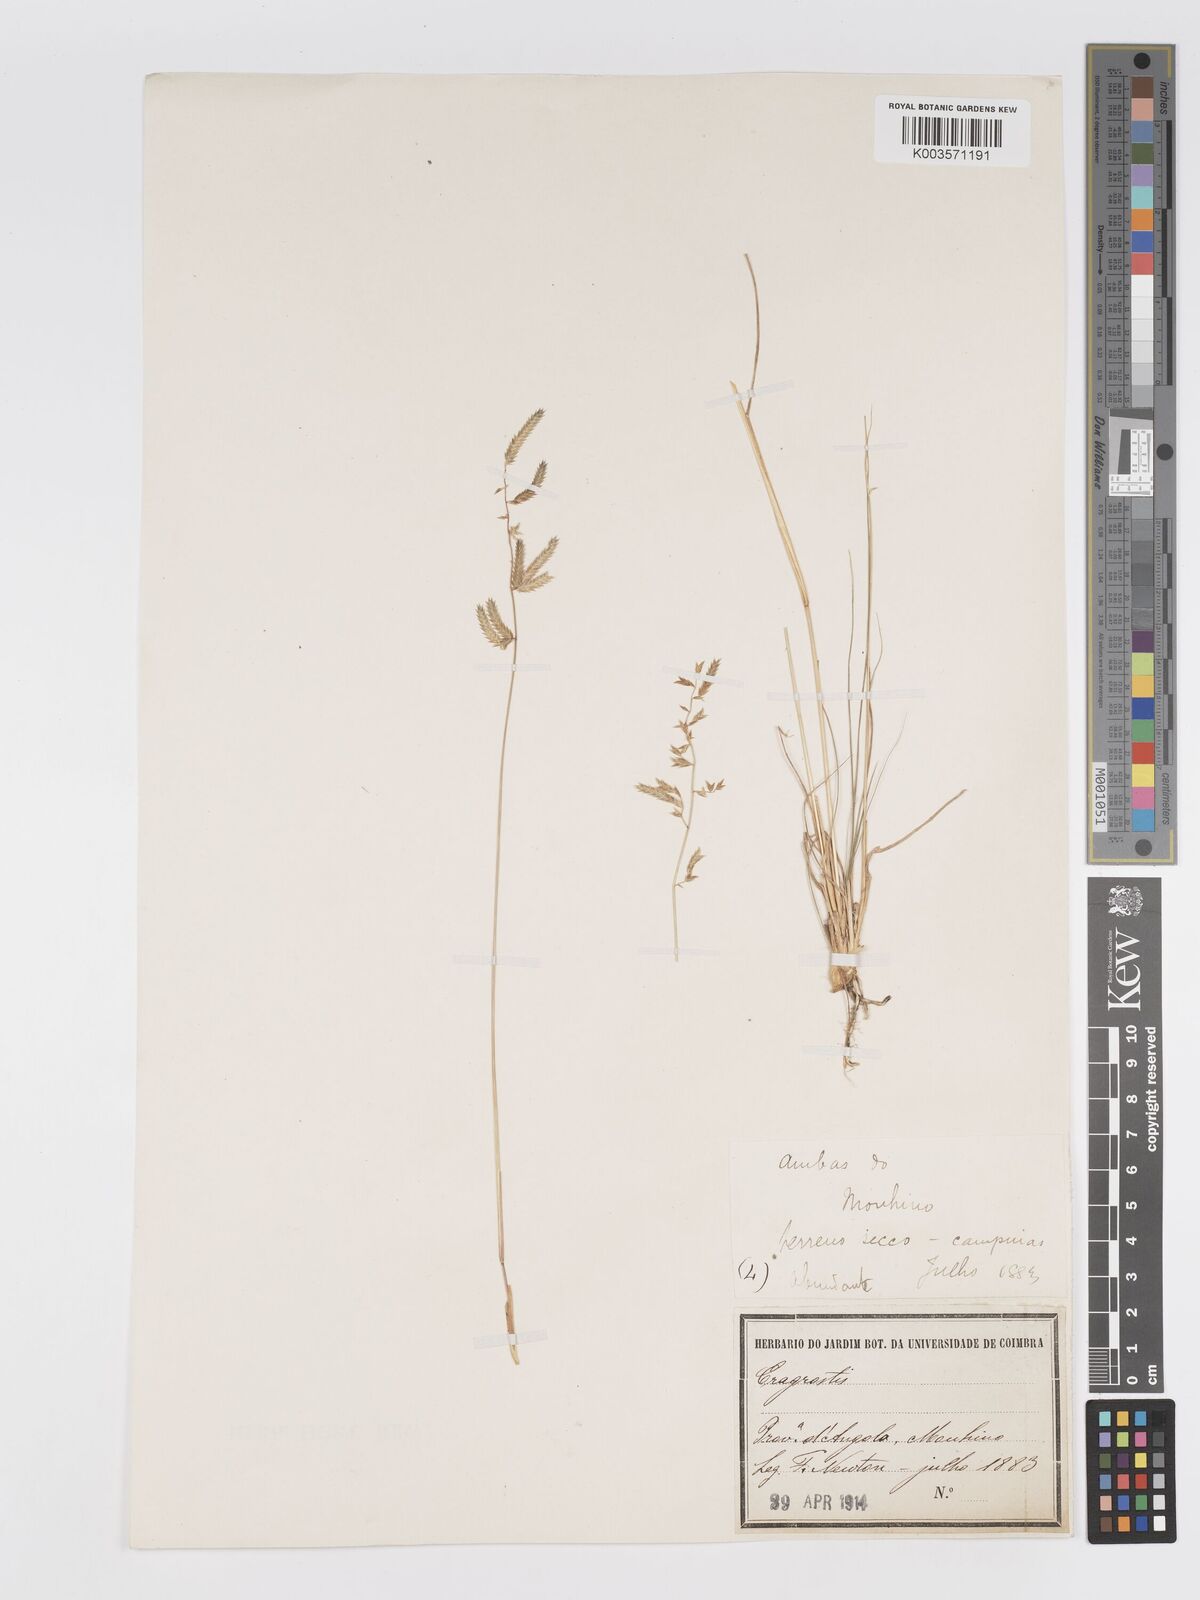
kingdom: Plantae
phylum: Tracheophyta
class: Liliopsida
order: Poales
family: Poaceae
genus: Eragrostis
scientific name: Eragrostis nindensis
